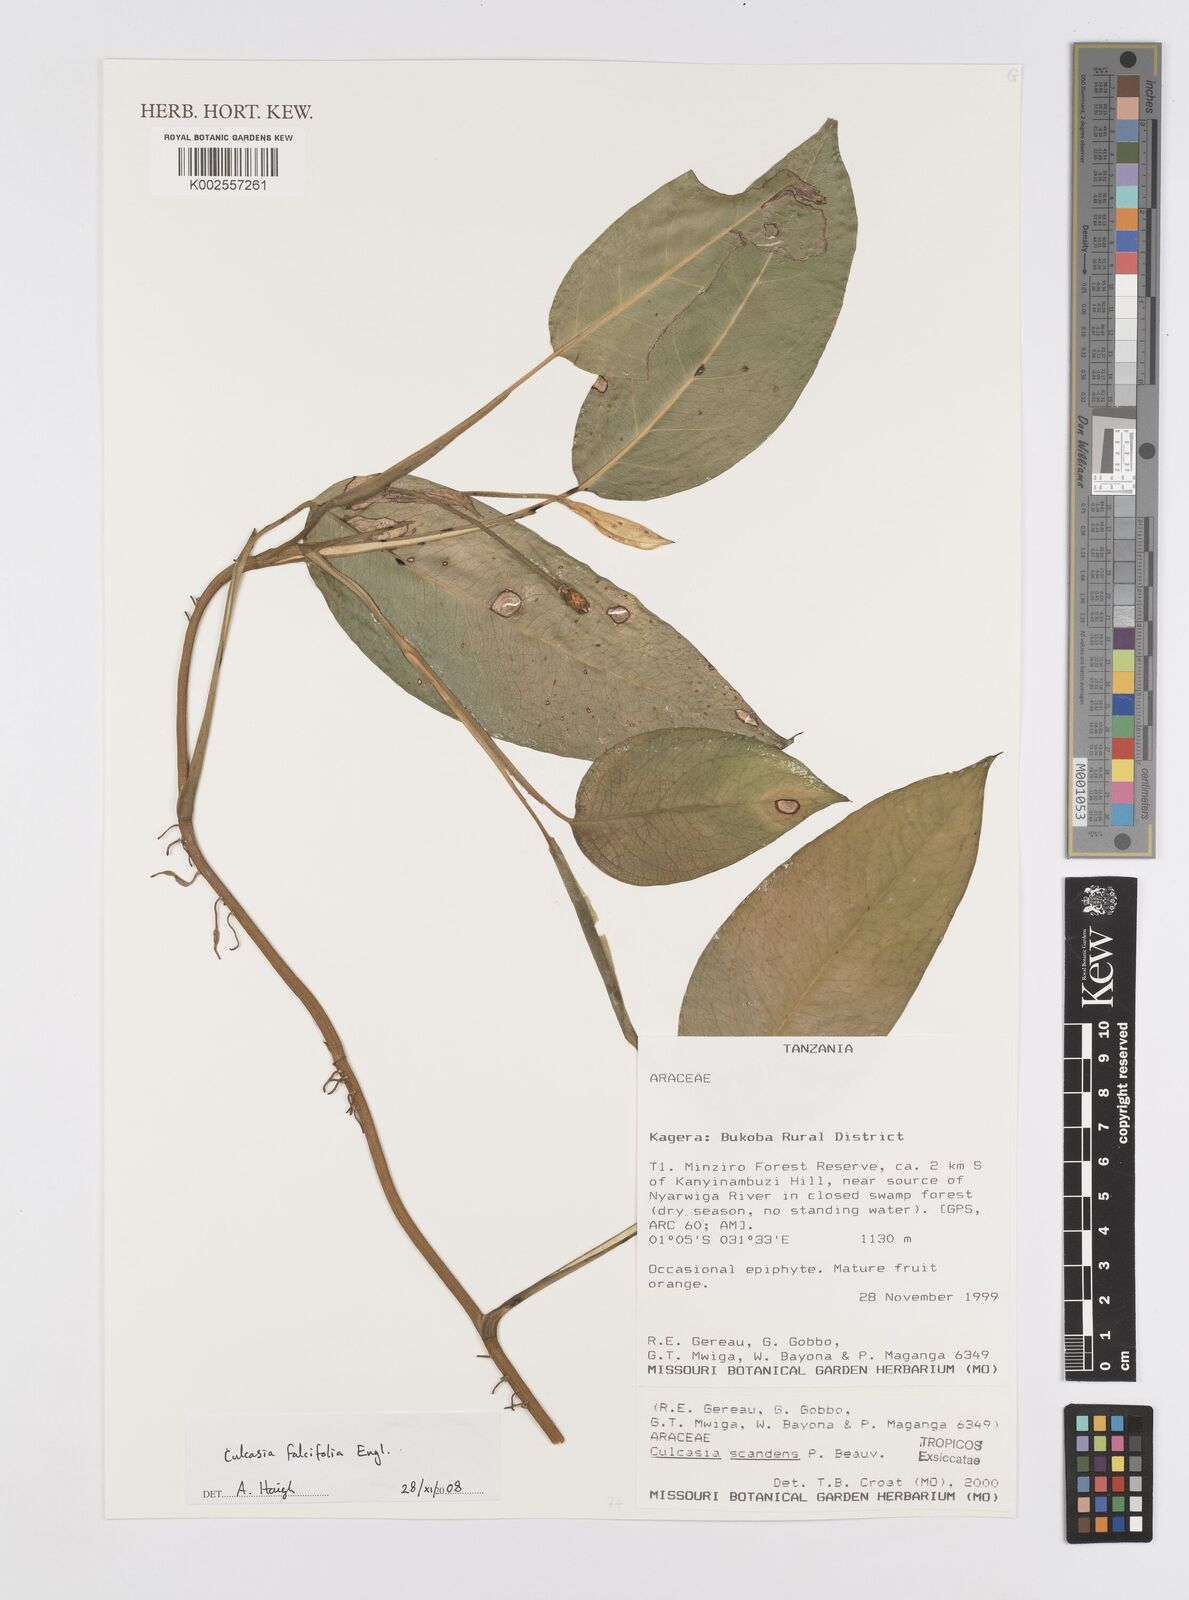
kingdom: Plantae
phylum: Tracheophyta
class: Liliopsida
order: Alismatales
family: Araceae
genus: Culcasia
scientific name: Culcasia falcifolia
